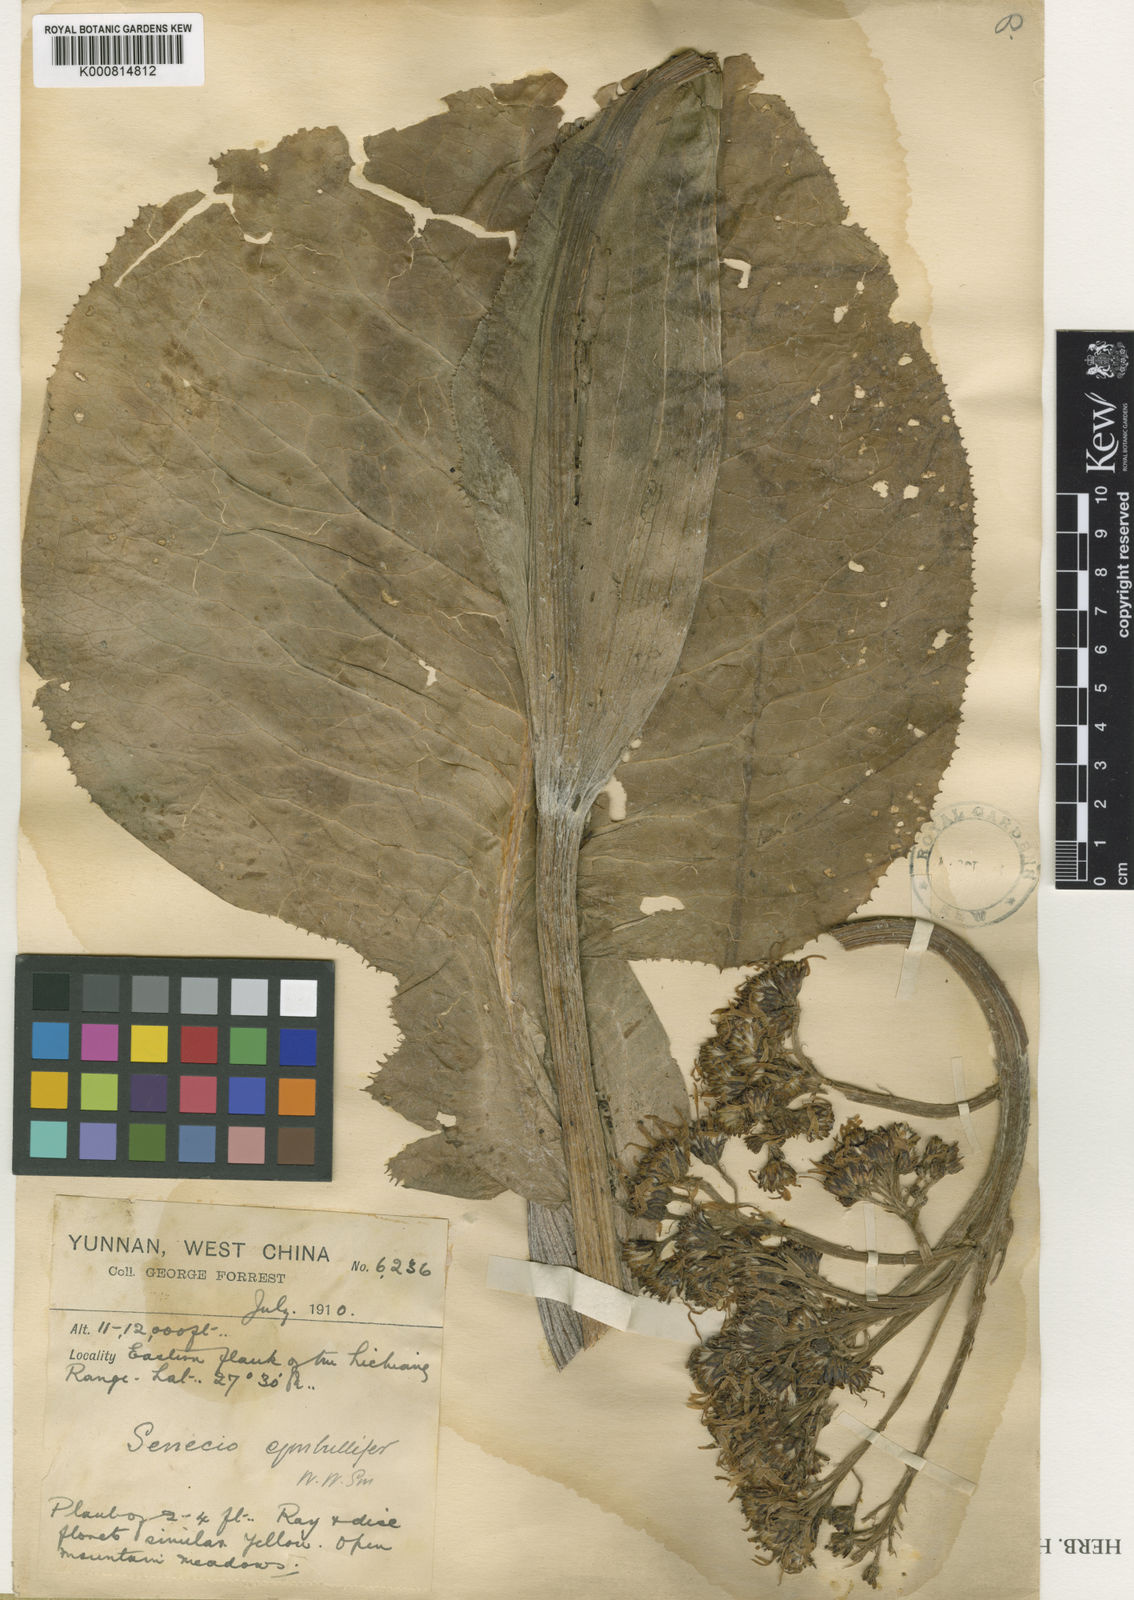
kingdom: Plantae
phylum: Tracheophyta
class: Magnoliopsida
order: Asterales
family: Asteraceae
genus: Ligularia
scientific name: Ligularia cymbulifera
